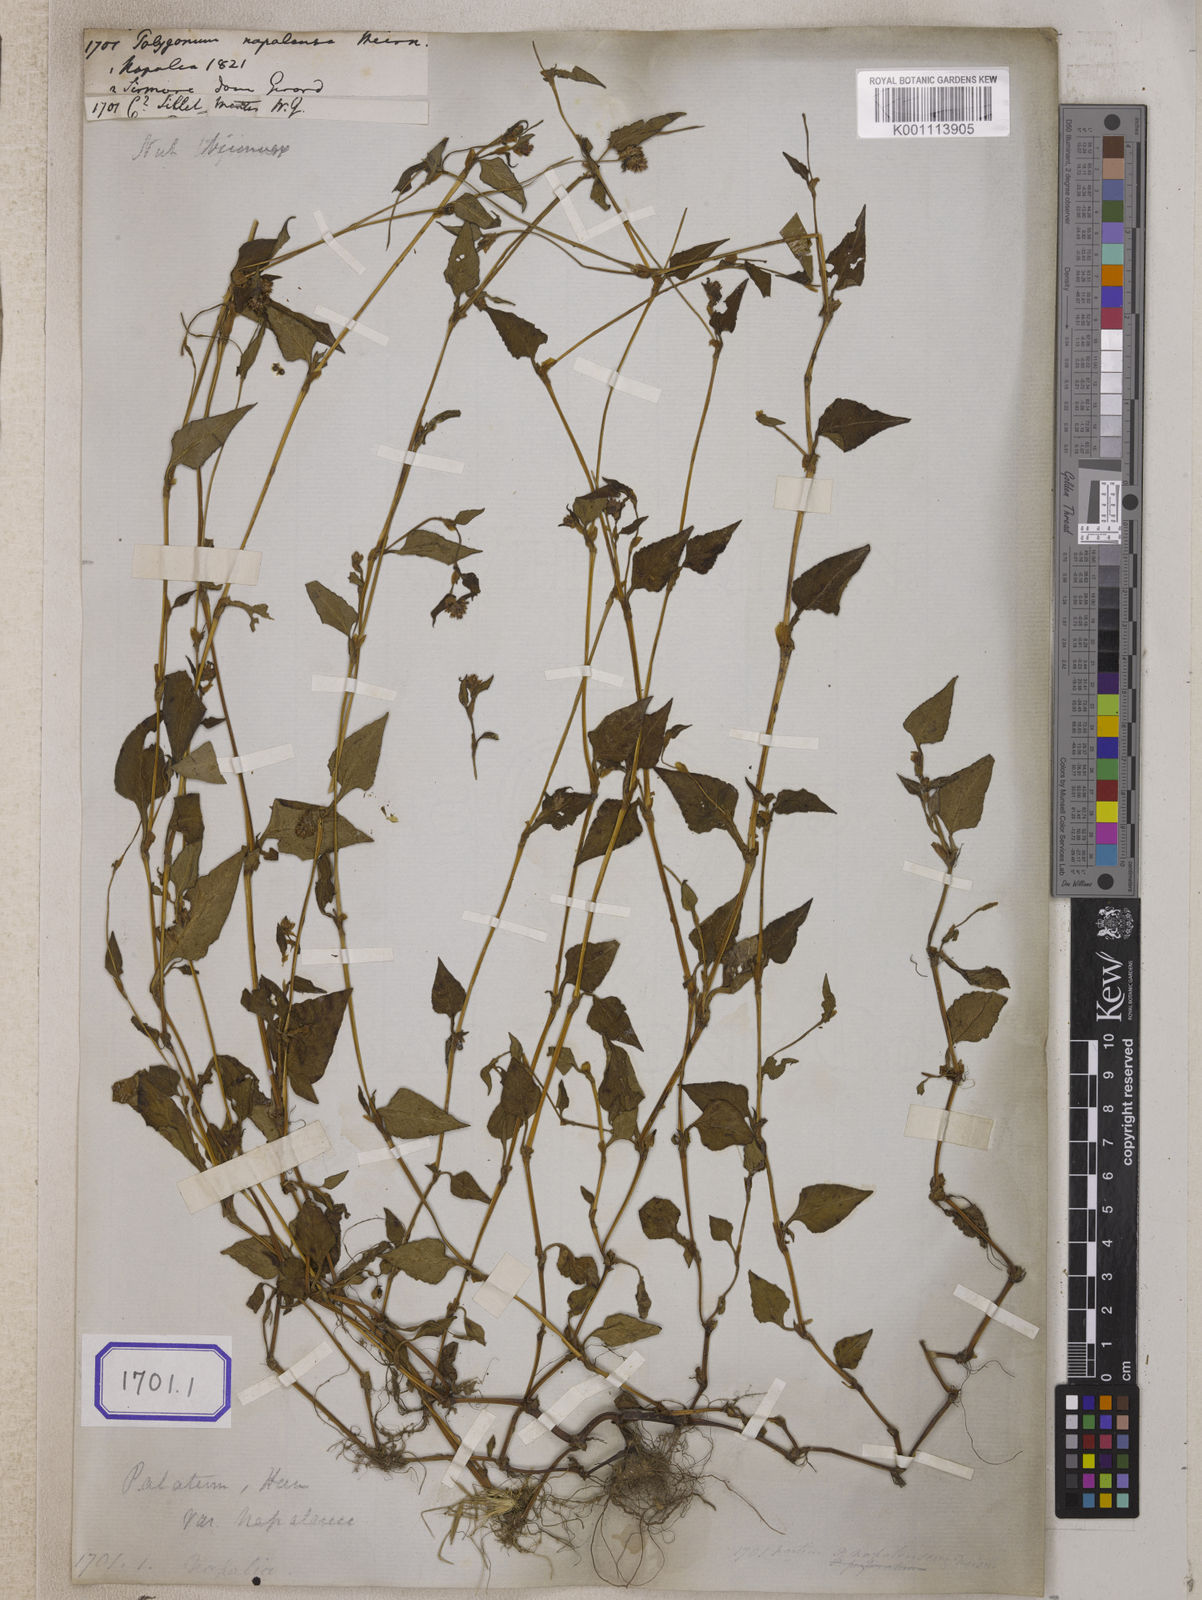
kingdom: Plantae
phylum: Tracheophyta
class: Magnoliopsida
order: Caryophyllales
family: Polygonaceae
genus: Persicaria
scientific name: Persicaria nepalensis
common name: Nepal persicaria
